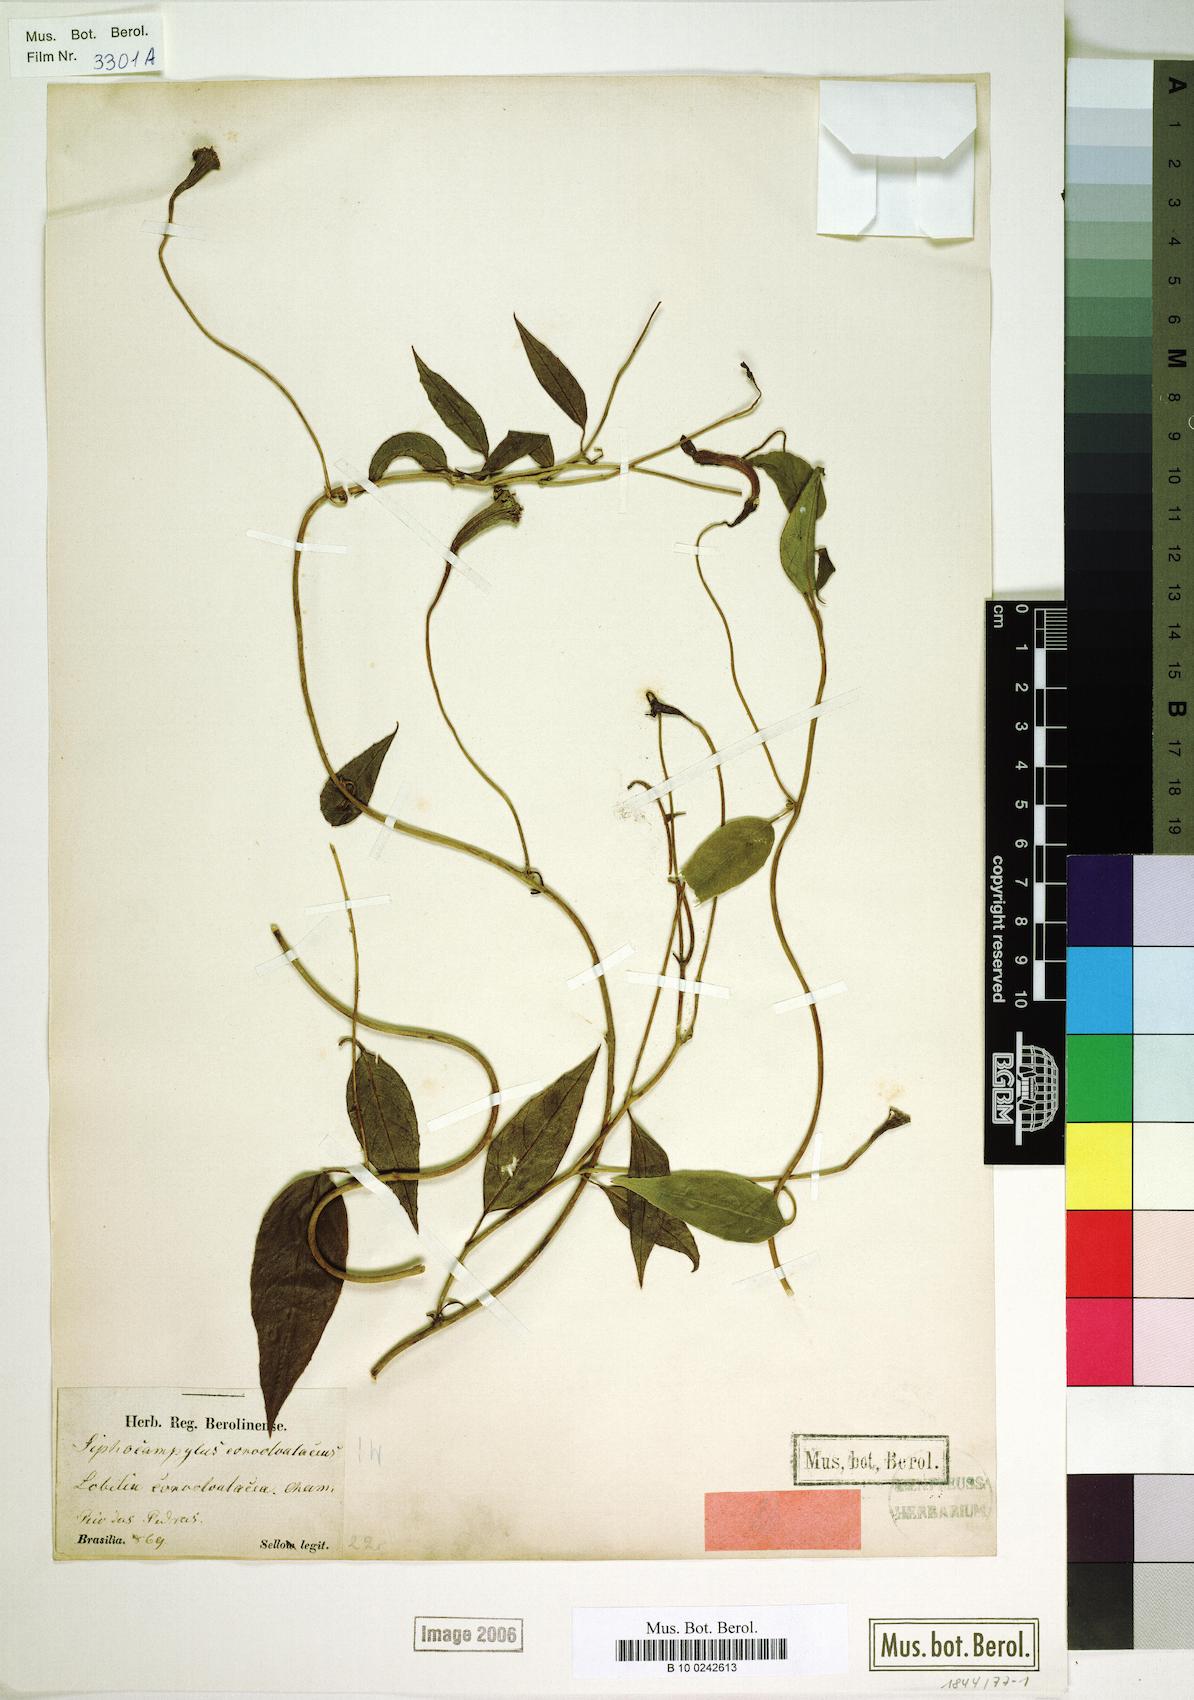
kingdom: Plantae
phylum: Tracheophyta
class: Magnoliopsida
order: Asterales
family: Campanulaceae
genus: Siphocampylus
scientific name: Siphocampylus convolvulaceus
